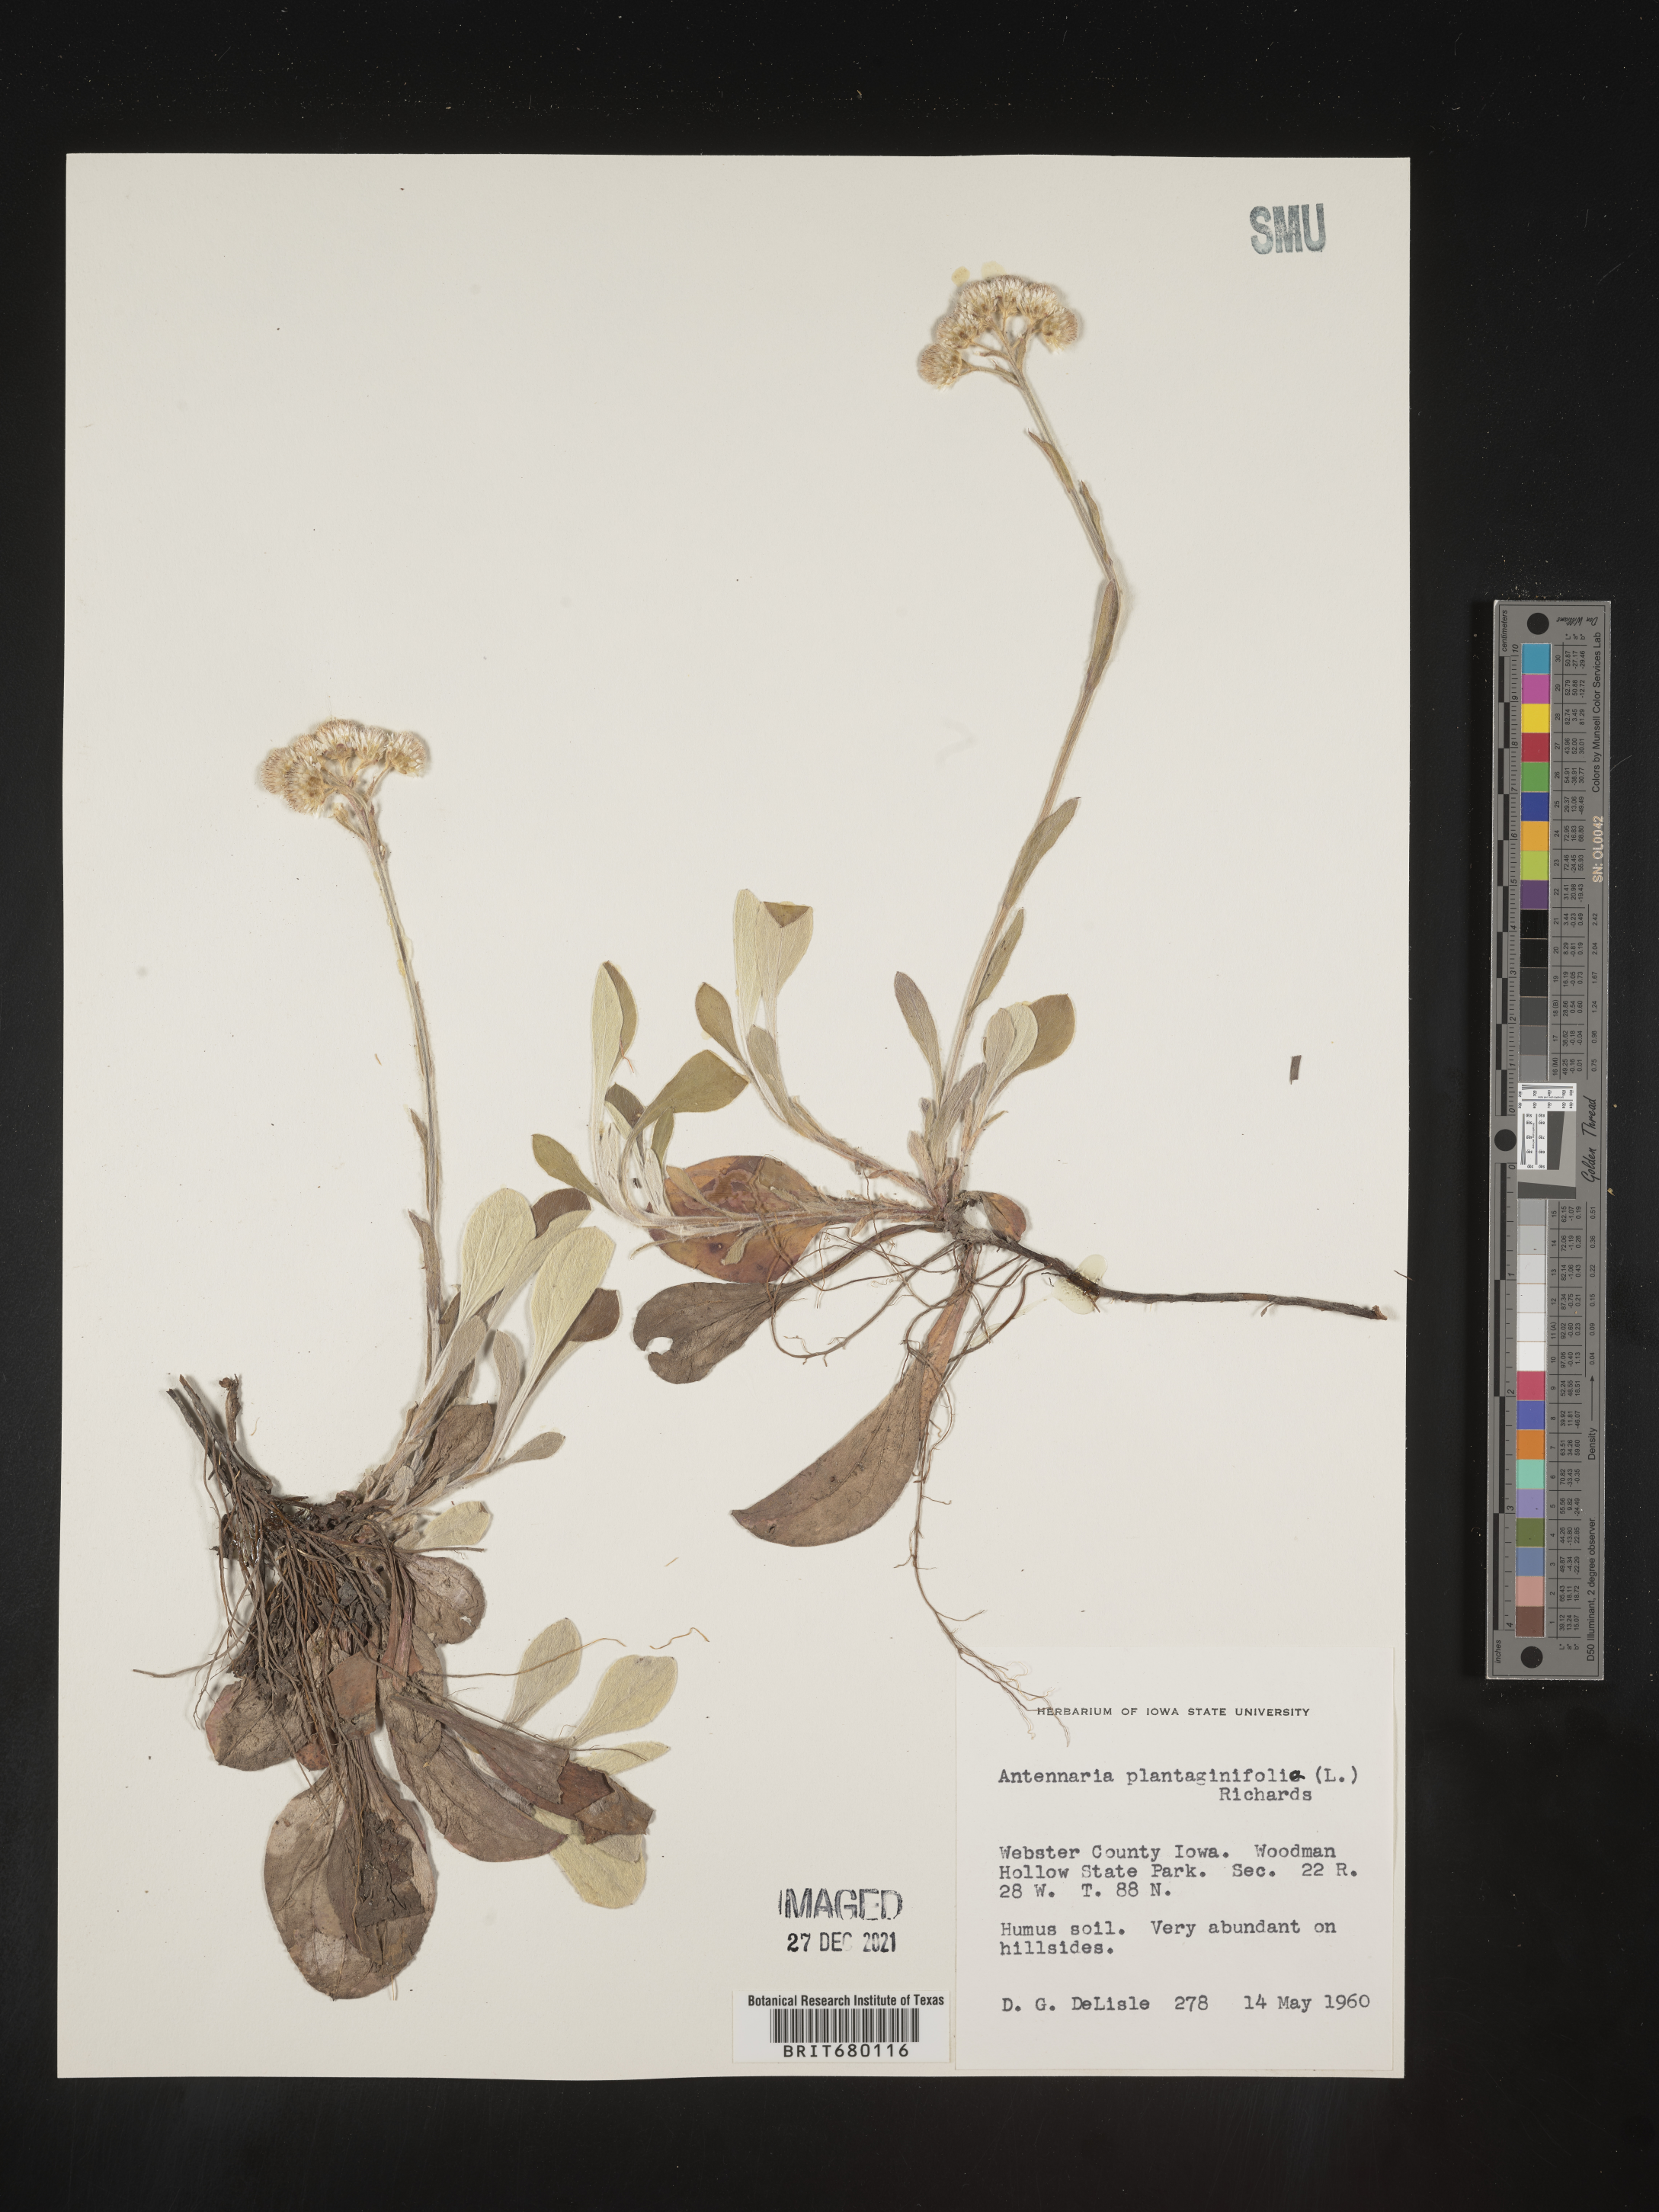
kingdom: Plantae
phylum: Tracheophyta
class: Magnoliopsida
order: Asterales
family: Asteraceae
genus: Antennaria
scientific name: Antennaria plantaginifolia
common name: Plantain-leaved pussytoes
